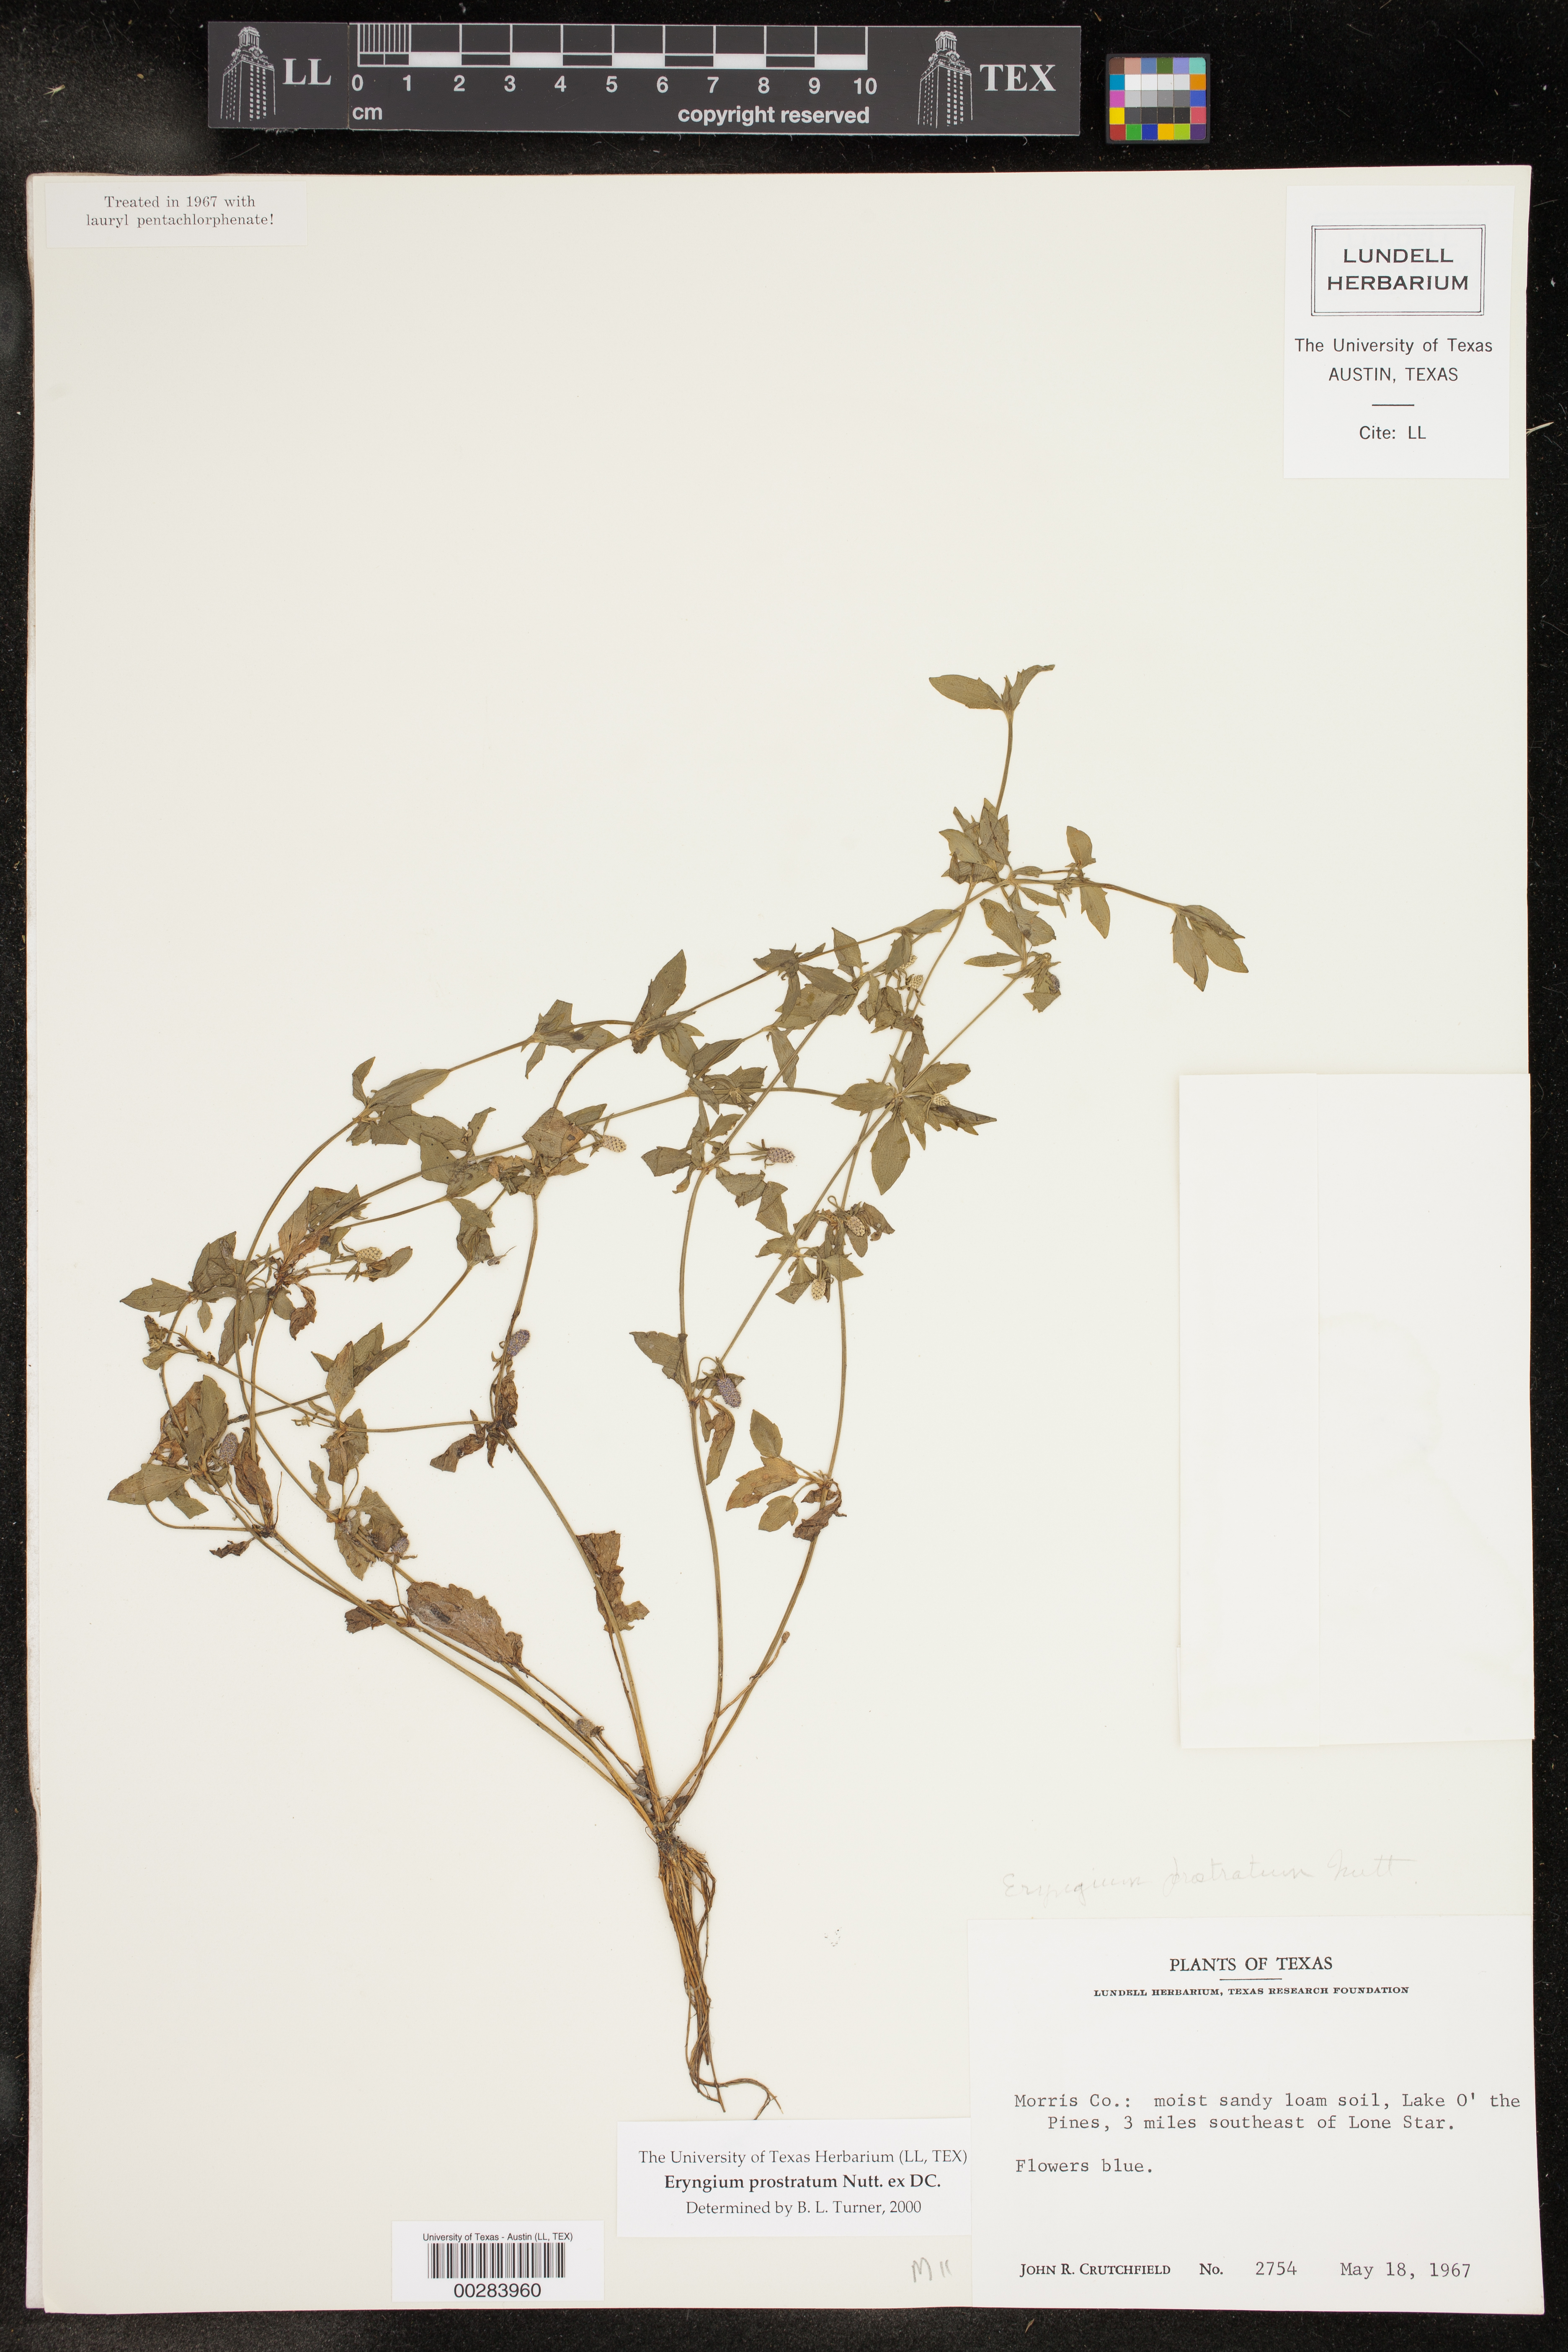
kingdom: Plantae
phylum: Tracheophyta
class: Magnoliopsida
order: Apiales
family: Apiaceae
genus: Eryngium
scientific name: Eryngium prostratum
